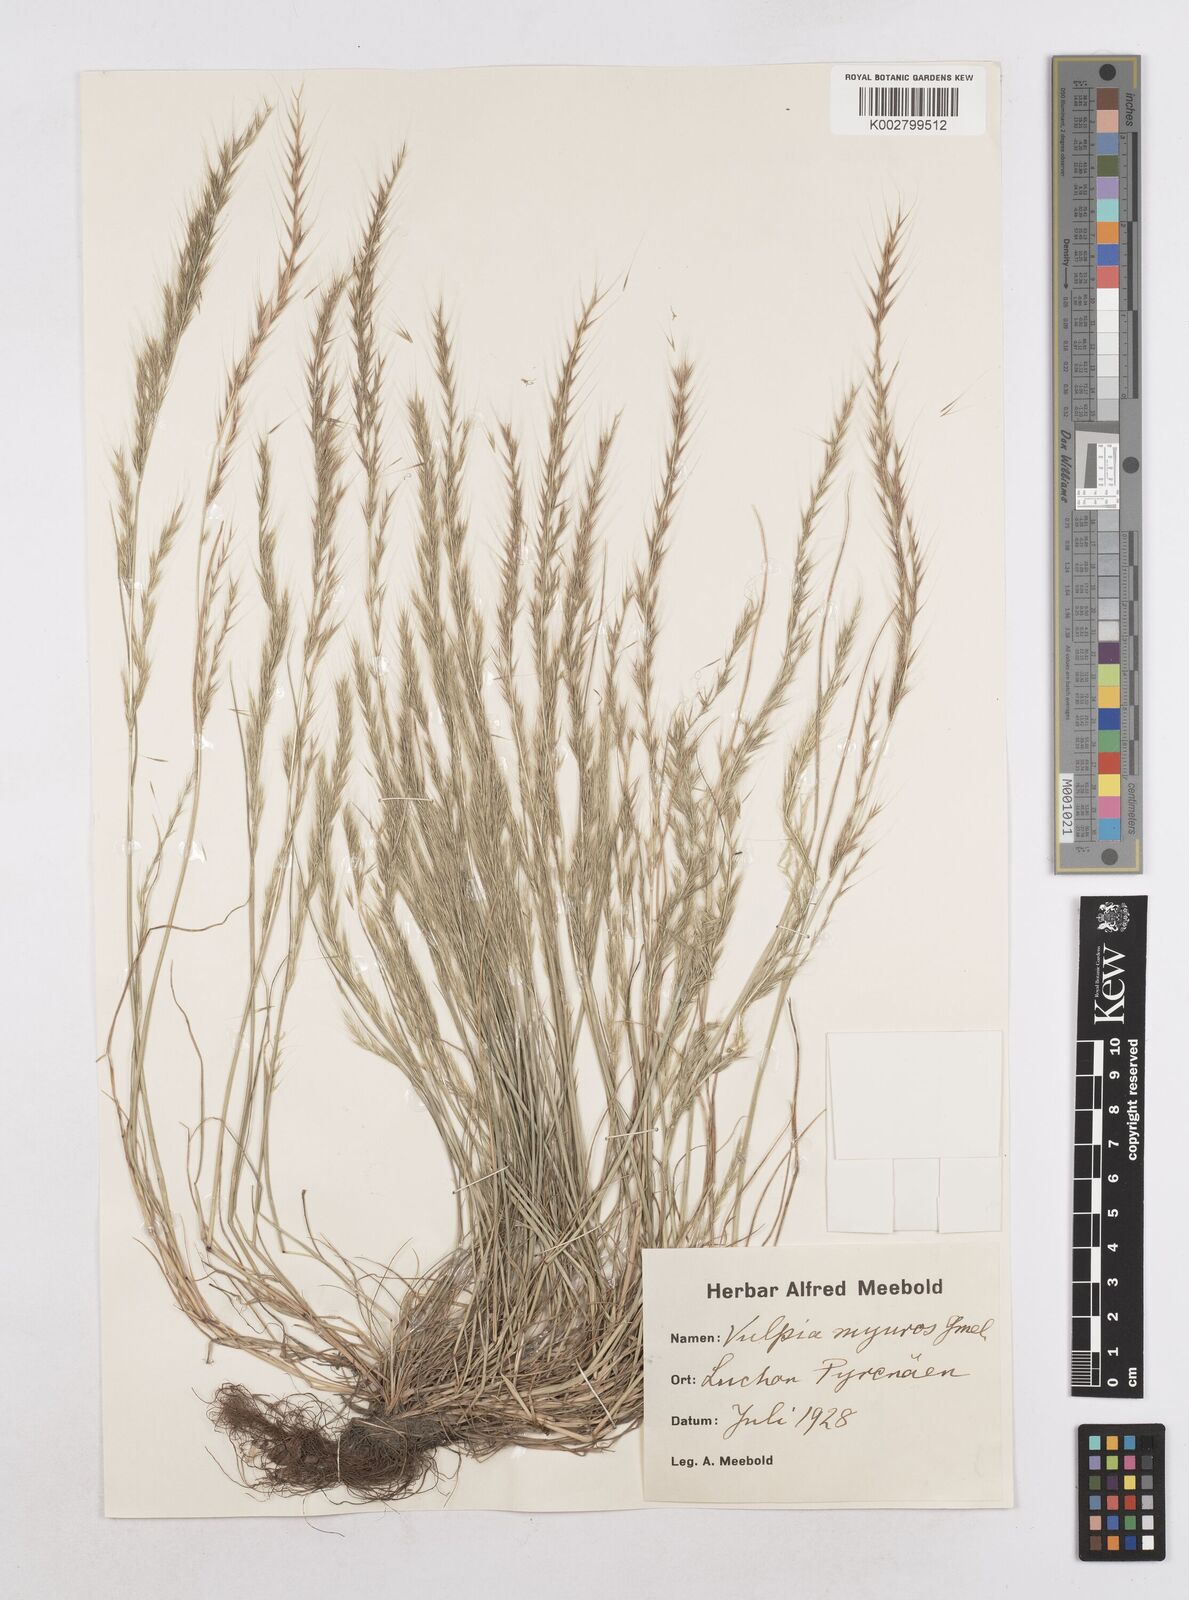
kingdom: Plantae
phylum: Tracheophyta
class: Liliopsida
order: Poales
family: Poaceae
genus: Festuca
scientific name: Festuca myuros
